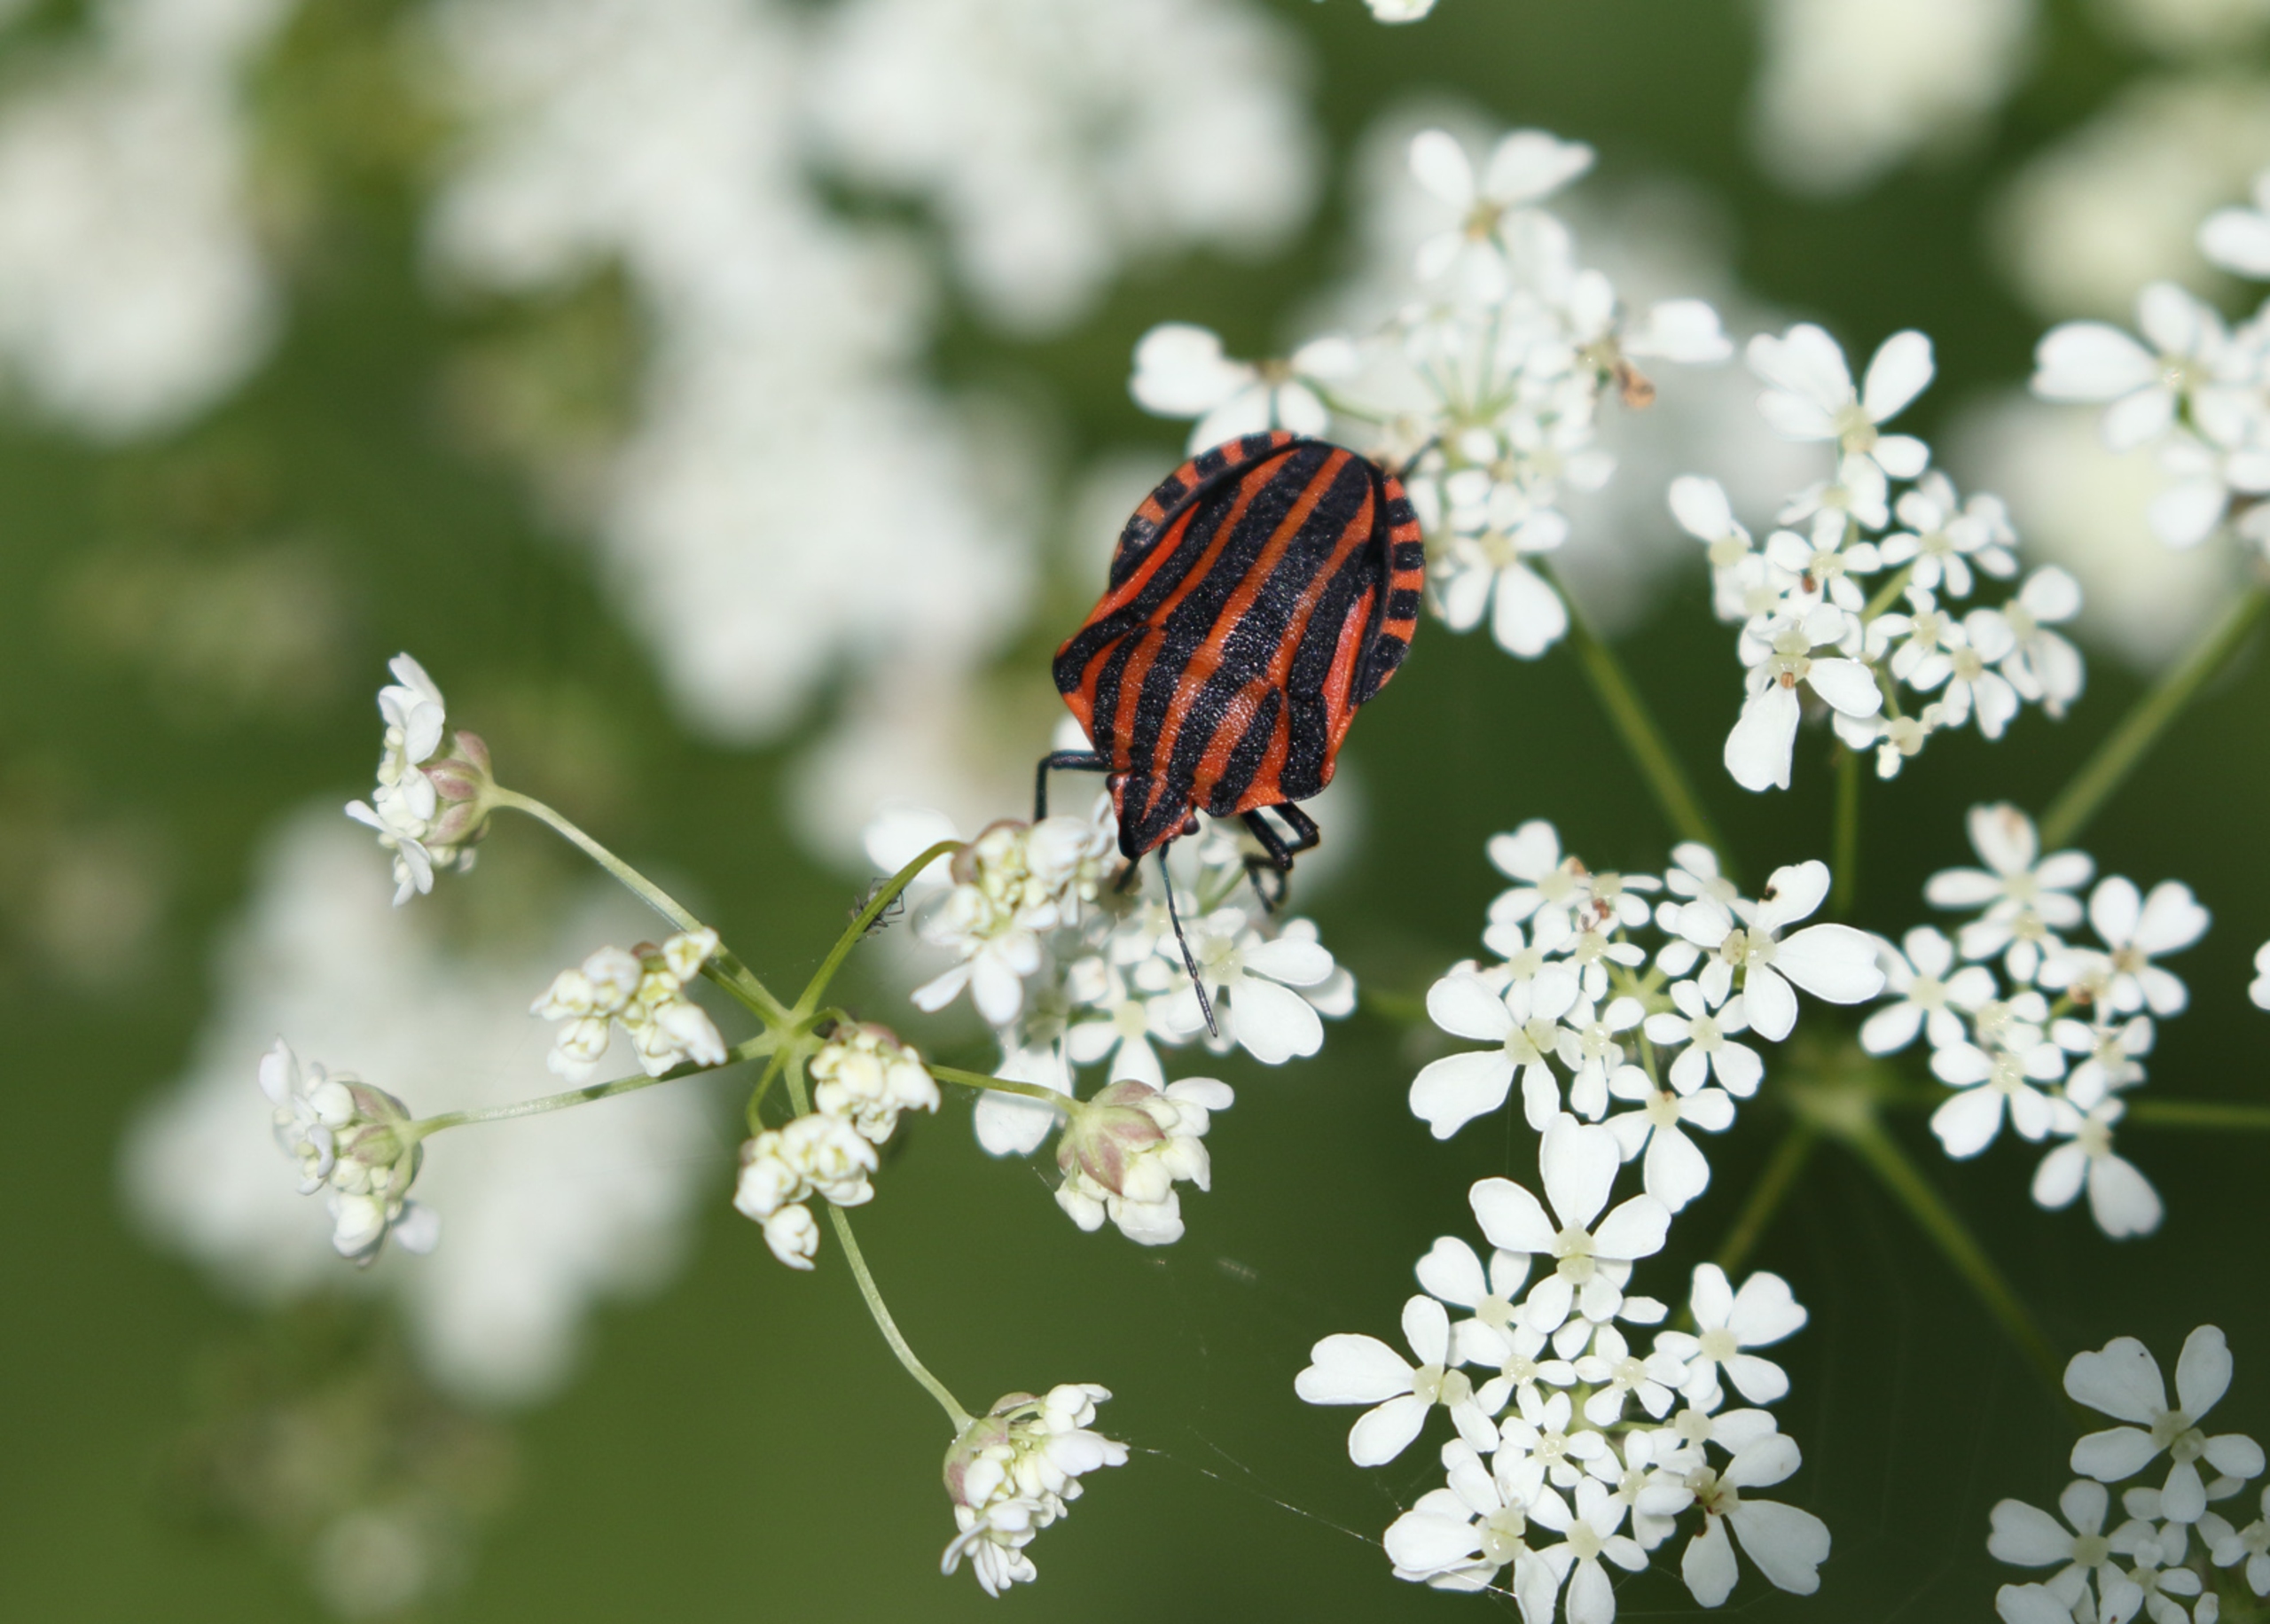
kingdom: Animalia
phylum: Arthropoda
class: Insecta
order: Hemiptera
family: Pentatomidae
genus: Graphosoma
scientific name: Graphosoma italicum
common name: Stribetæge
